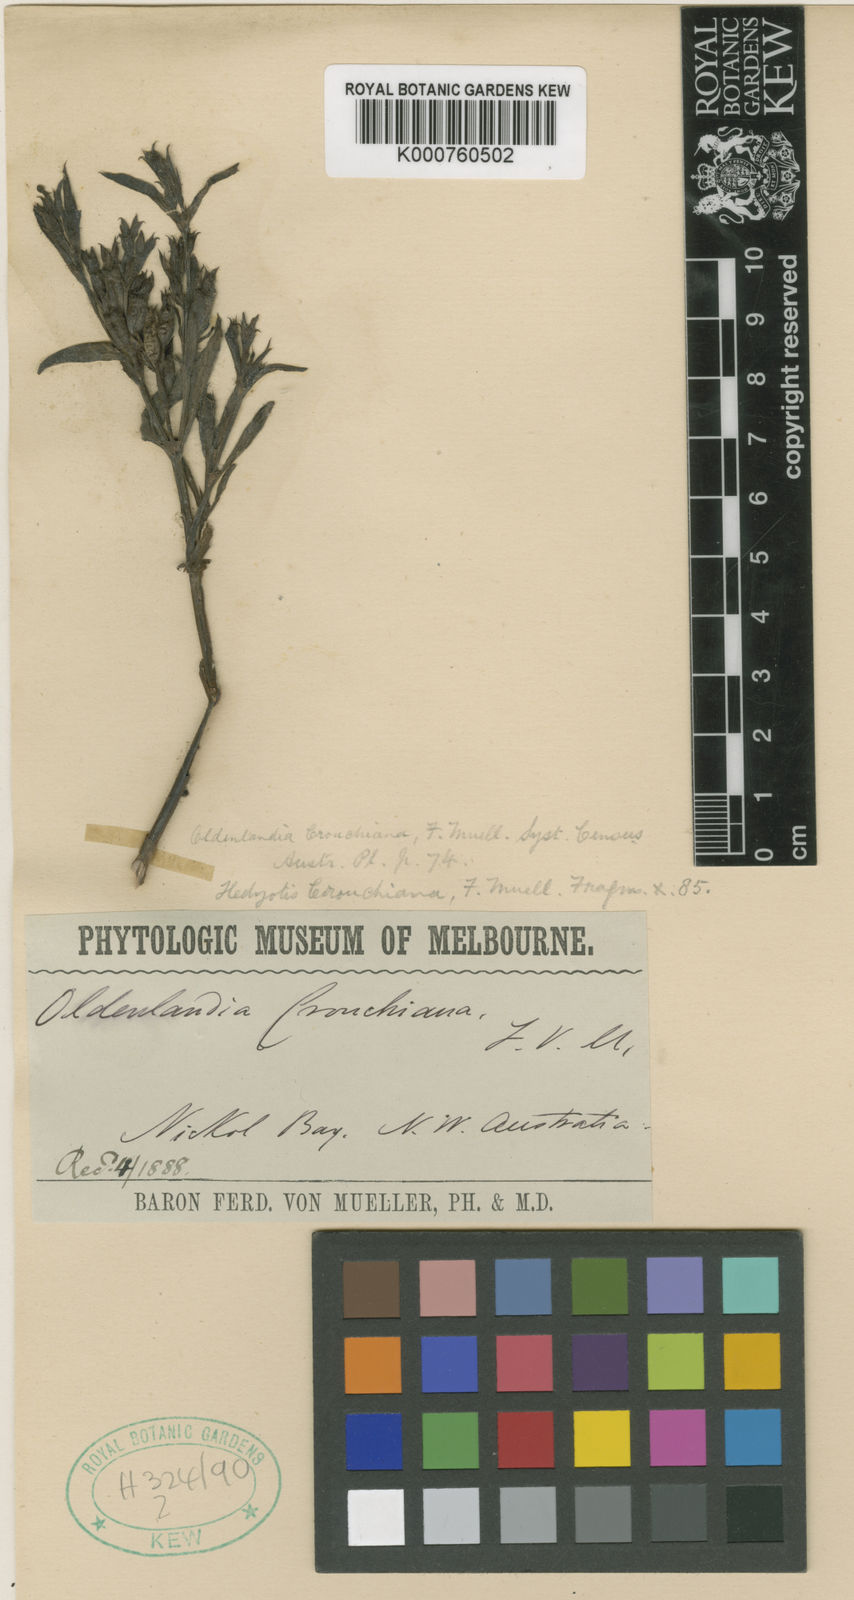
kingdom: Plantae
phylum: Tracheophyta
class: Magnoliopsida
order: Gentianales
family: Rubiaceae
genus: Dolichocarpa
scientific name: Dolichocarpa crouchiana
